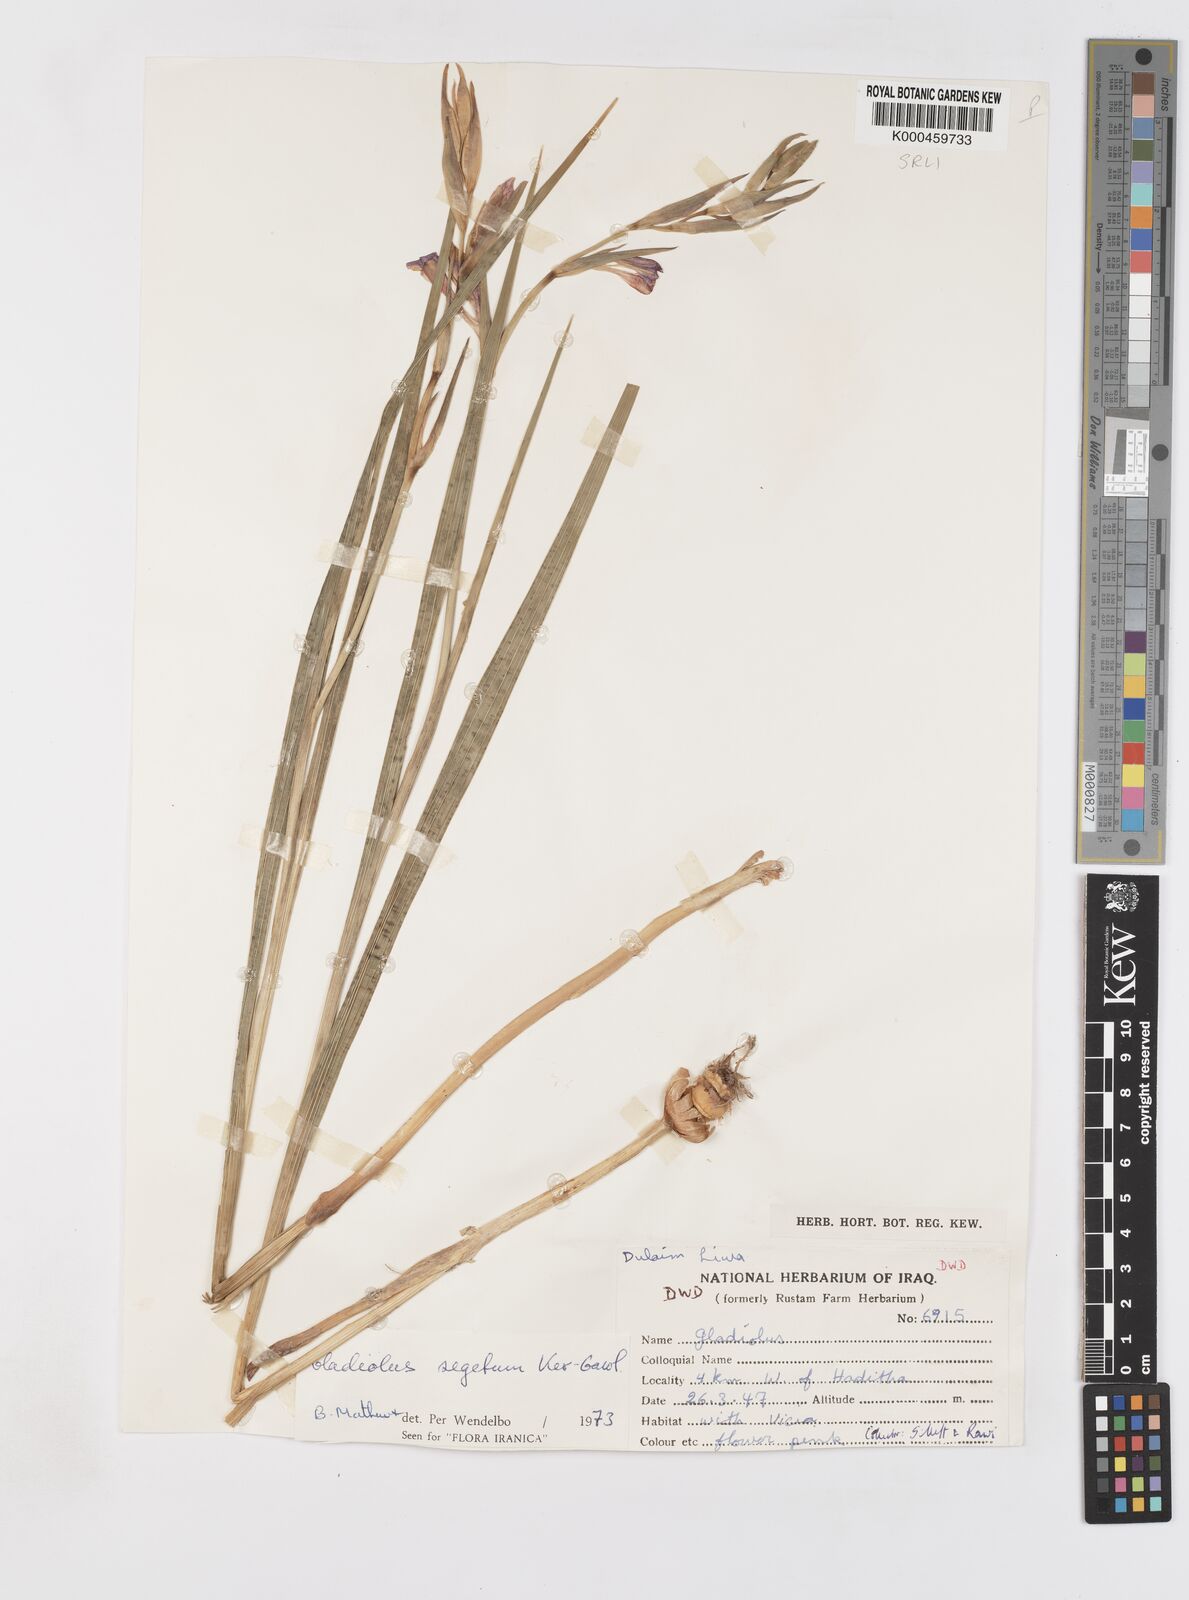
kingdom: Plantae
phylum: Tracheophyta
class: Liliopsida
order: Asparagales
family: Iridaceae
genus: Gladiolus
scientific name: Gladiolus italicus
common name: Field gladiolus
